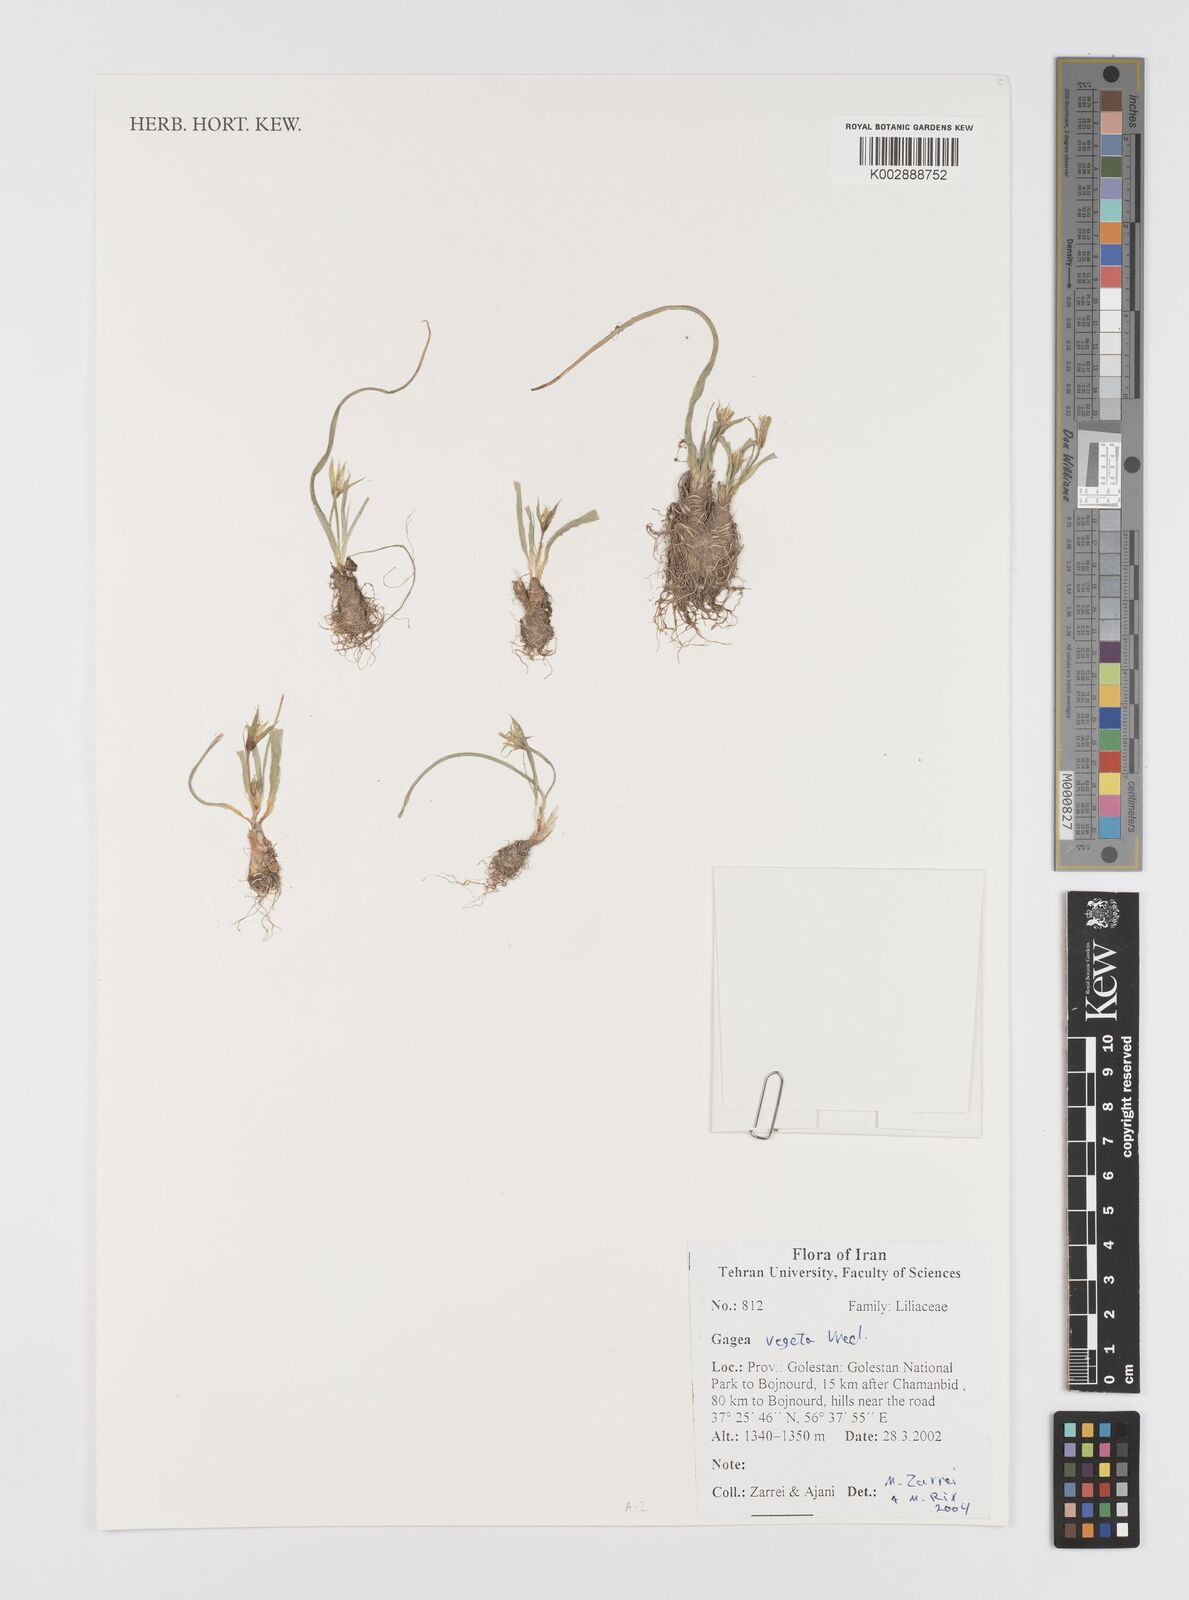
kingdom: Plantae
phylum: Tracheophyta
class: Liliopsida
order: Liliales
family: Liliaceae
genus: Gagea
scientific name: Gagea vegeta
